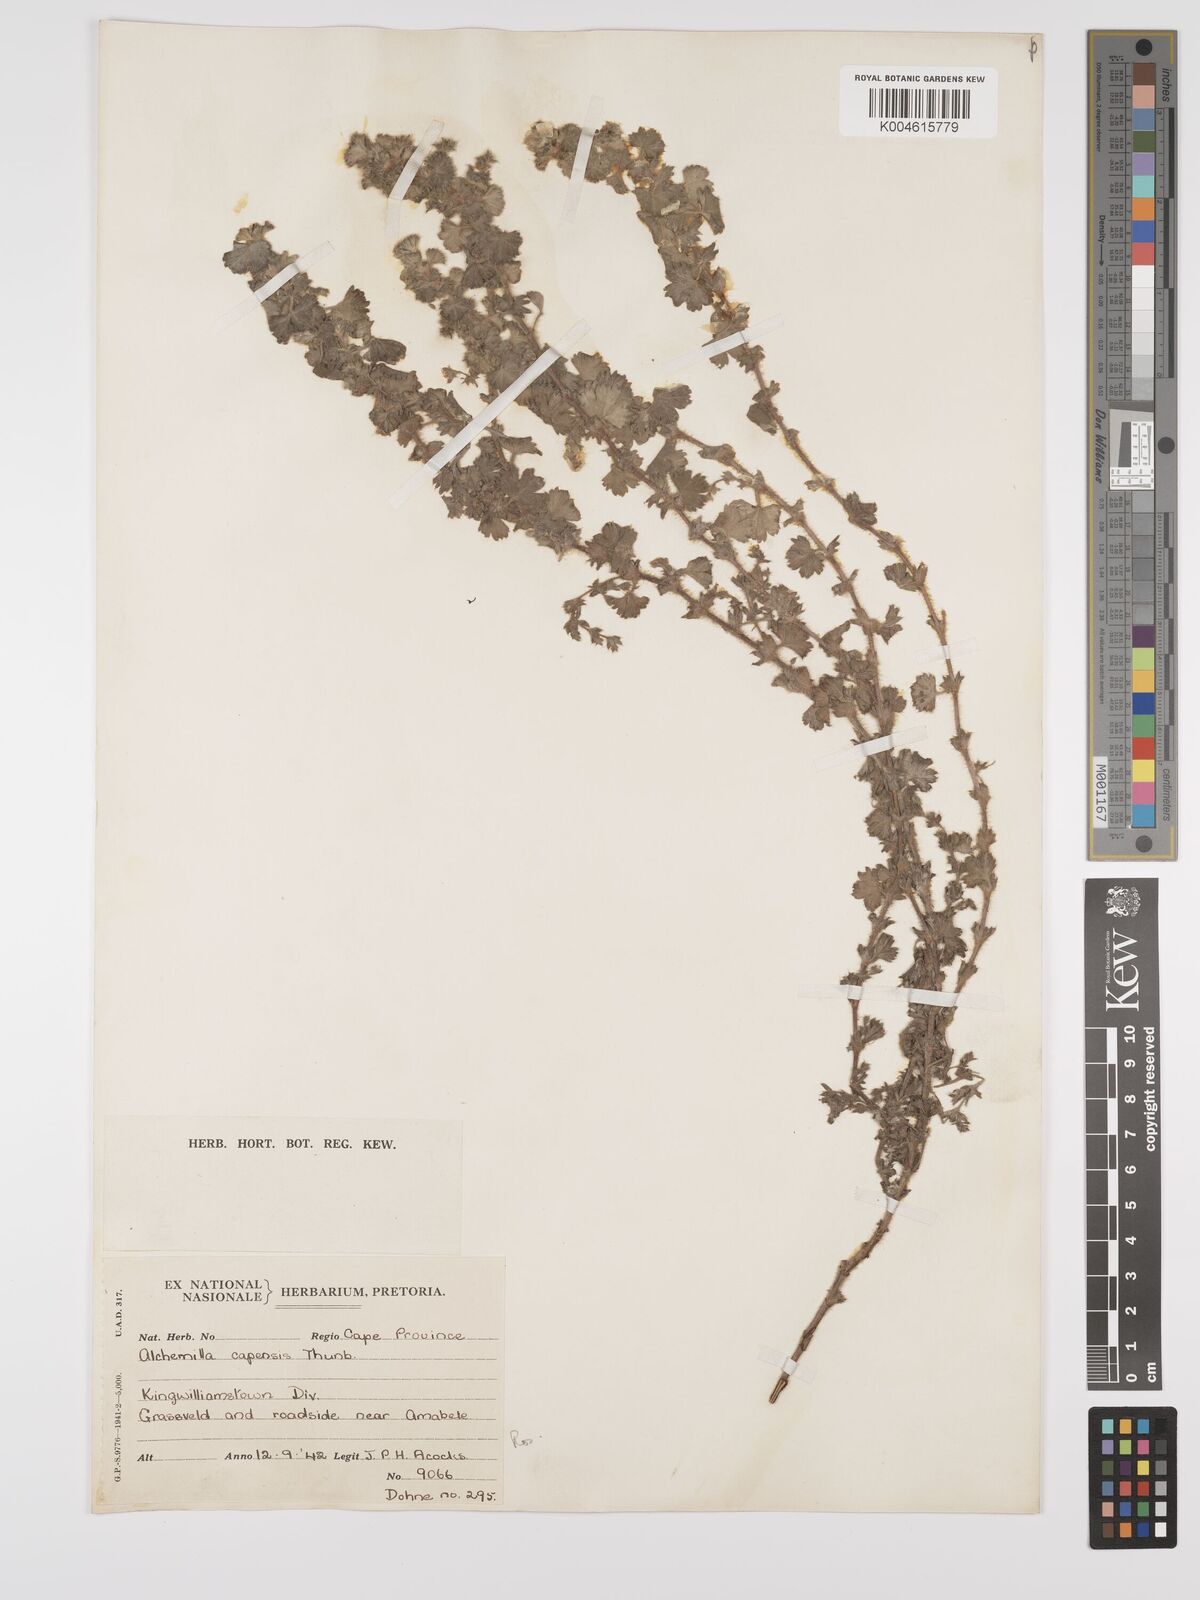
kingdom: Plantae
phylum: Tracheophyta
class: Magnoliopsida
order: Rosales
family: Rosaceae
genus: Alchemilla
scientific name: Alchemilla woodii
